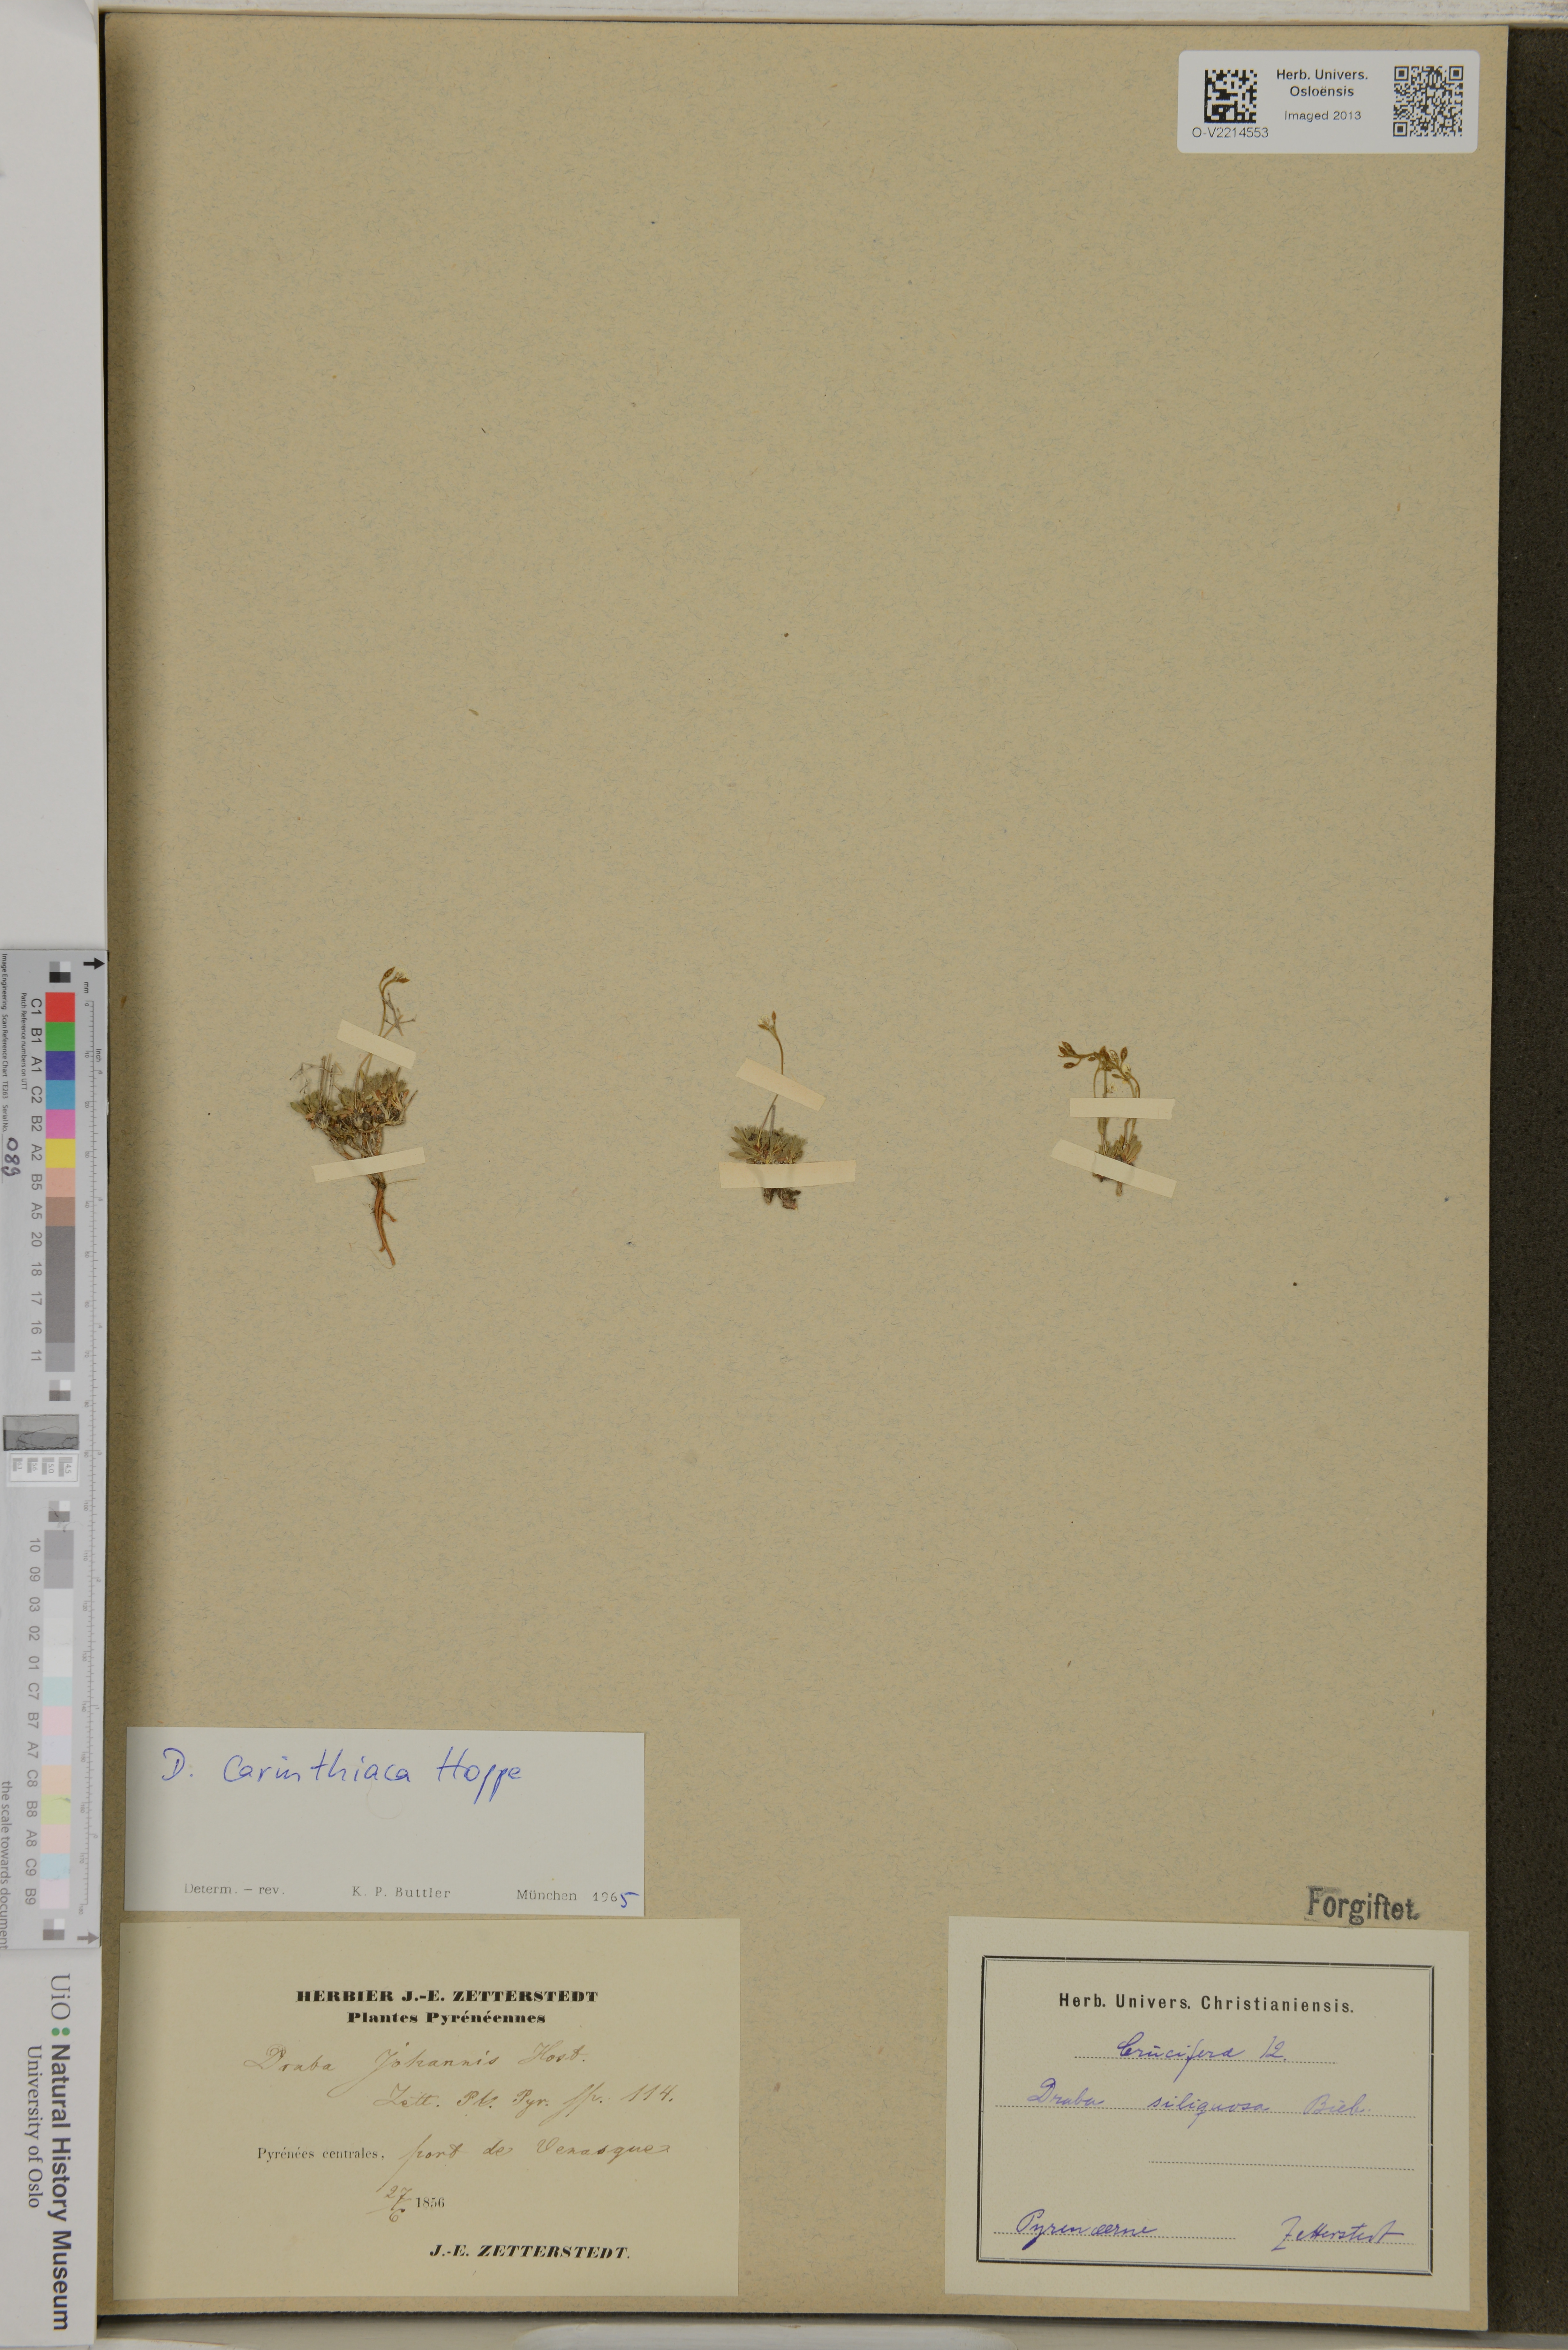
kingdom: Plantae
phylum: Tracheophyta
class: Magnoliopsida
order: Brassicales
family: Brassicaceae
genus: Draba
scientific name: Draba siliquosa
